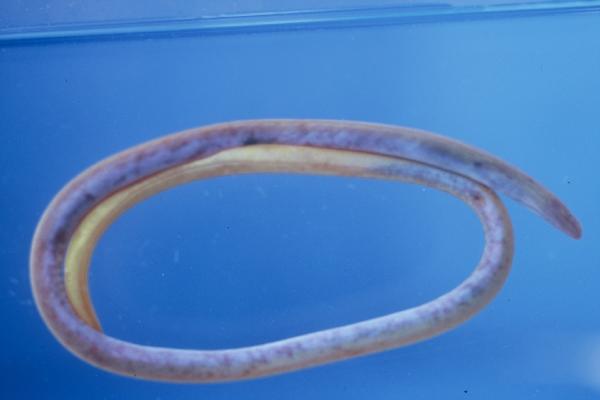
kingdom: Animalia
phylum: Chordata
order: Anguilliformes
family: Moringuidae
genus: Moringua
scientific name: Moringua ferruginea
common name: Rusty spaghetti eel
